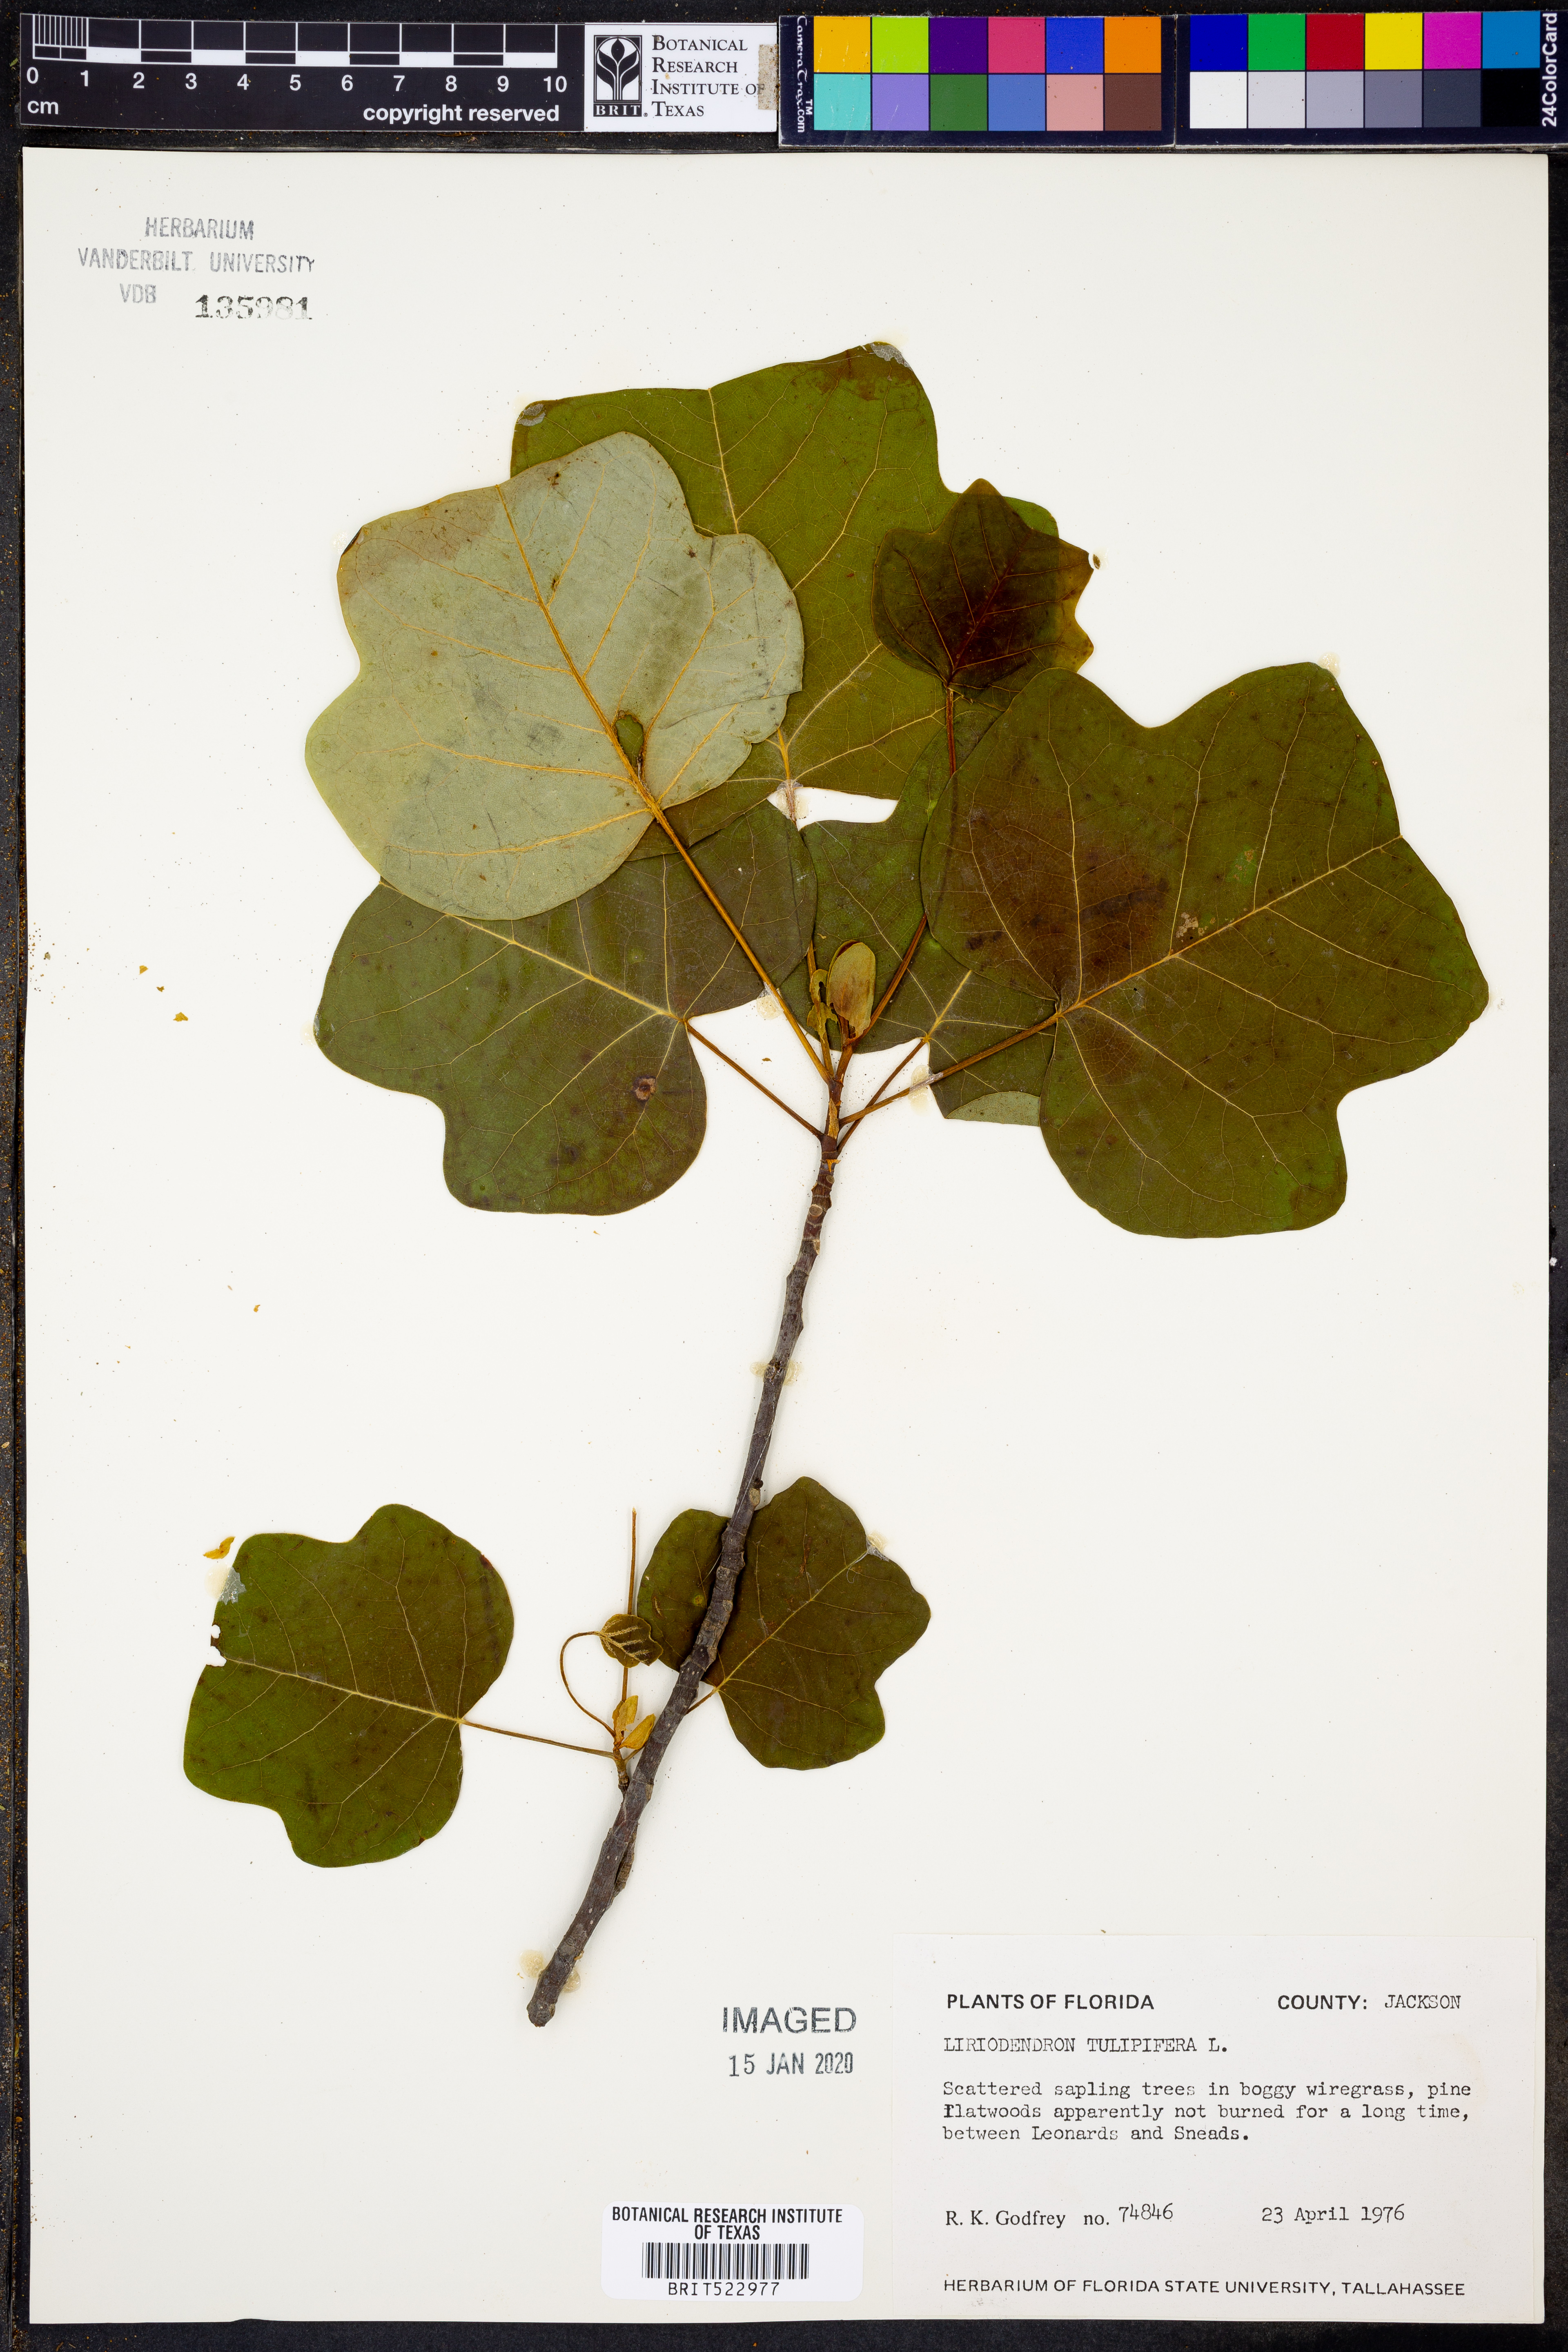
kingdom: Plantae
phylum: Tracheophyta
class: Magnoliopsida
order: Magnoliales
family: Magnoliaceae
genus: Liriodendron
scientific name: Liriodendron tulipifera
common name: Tulip tree
